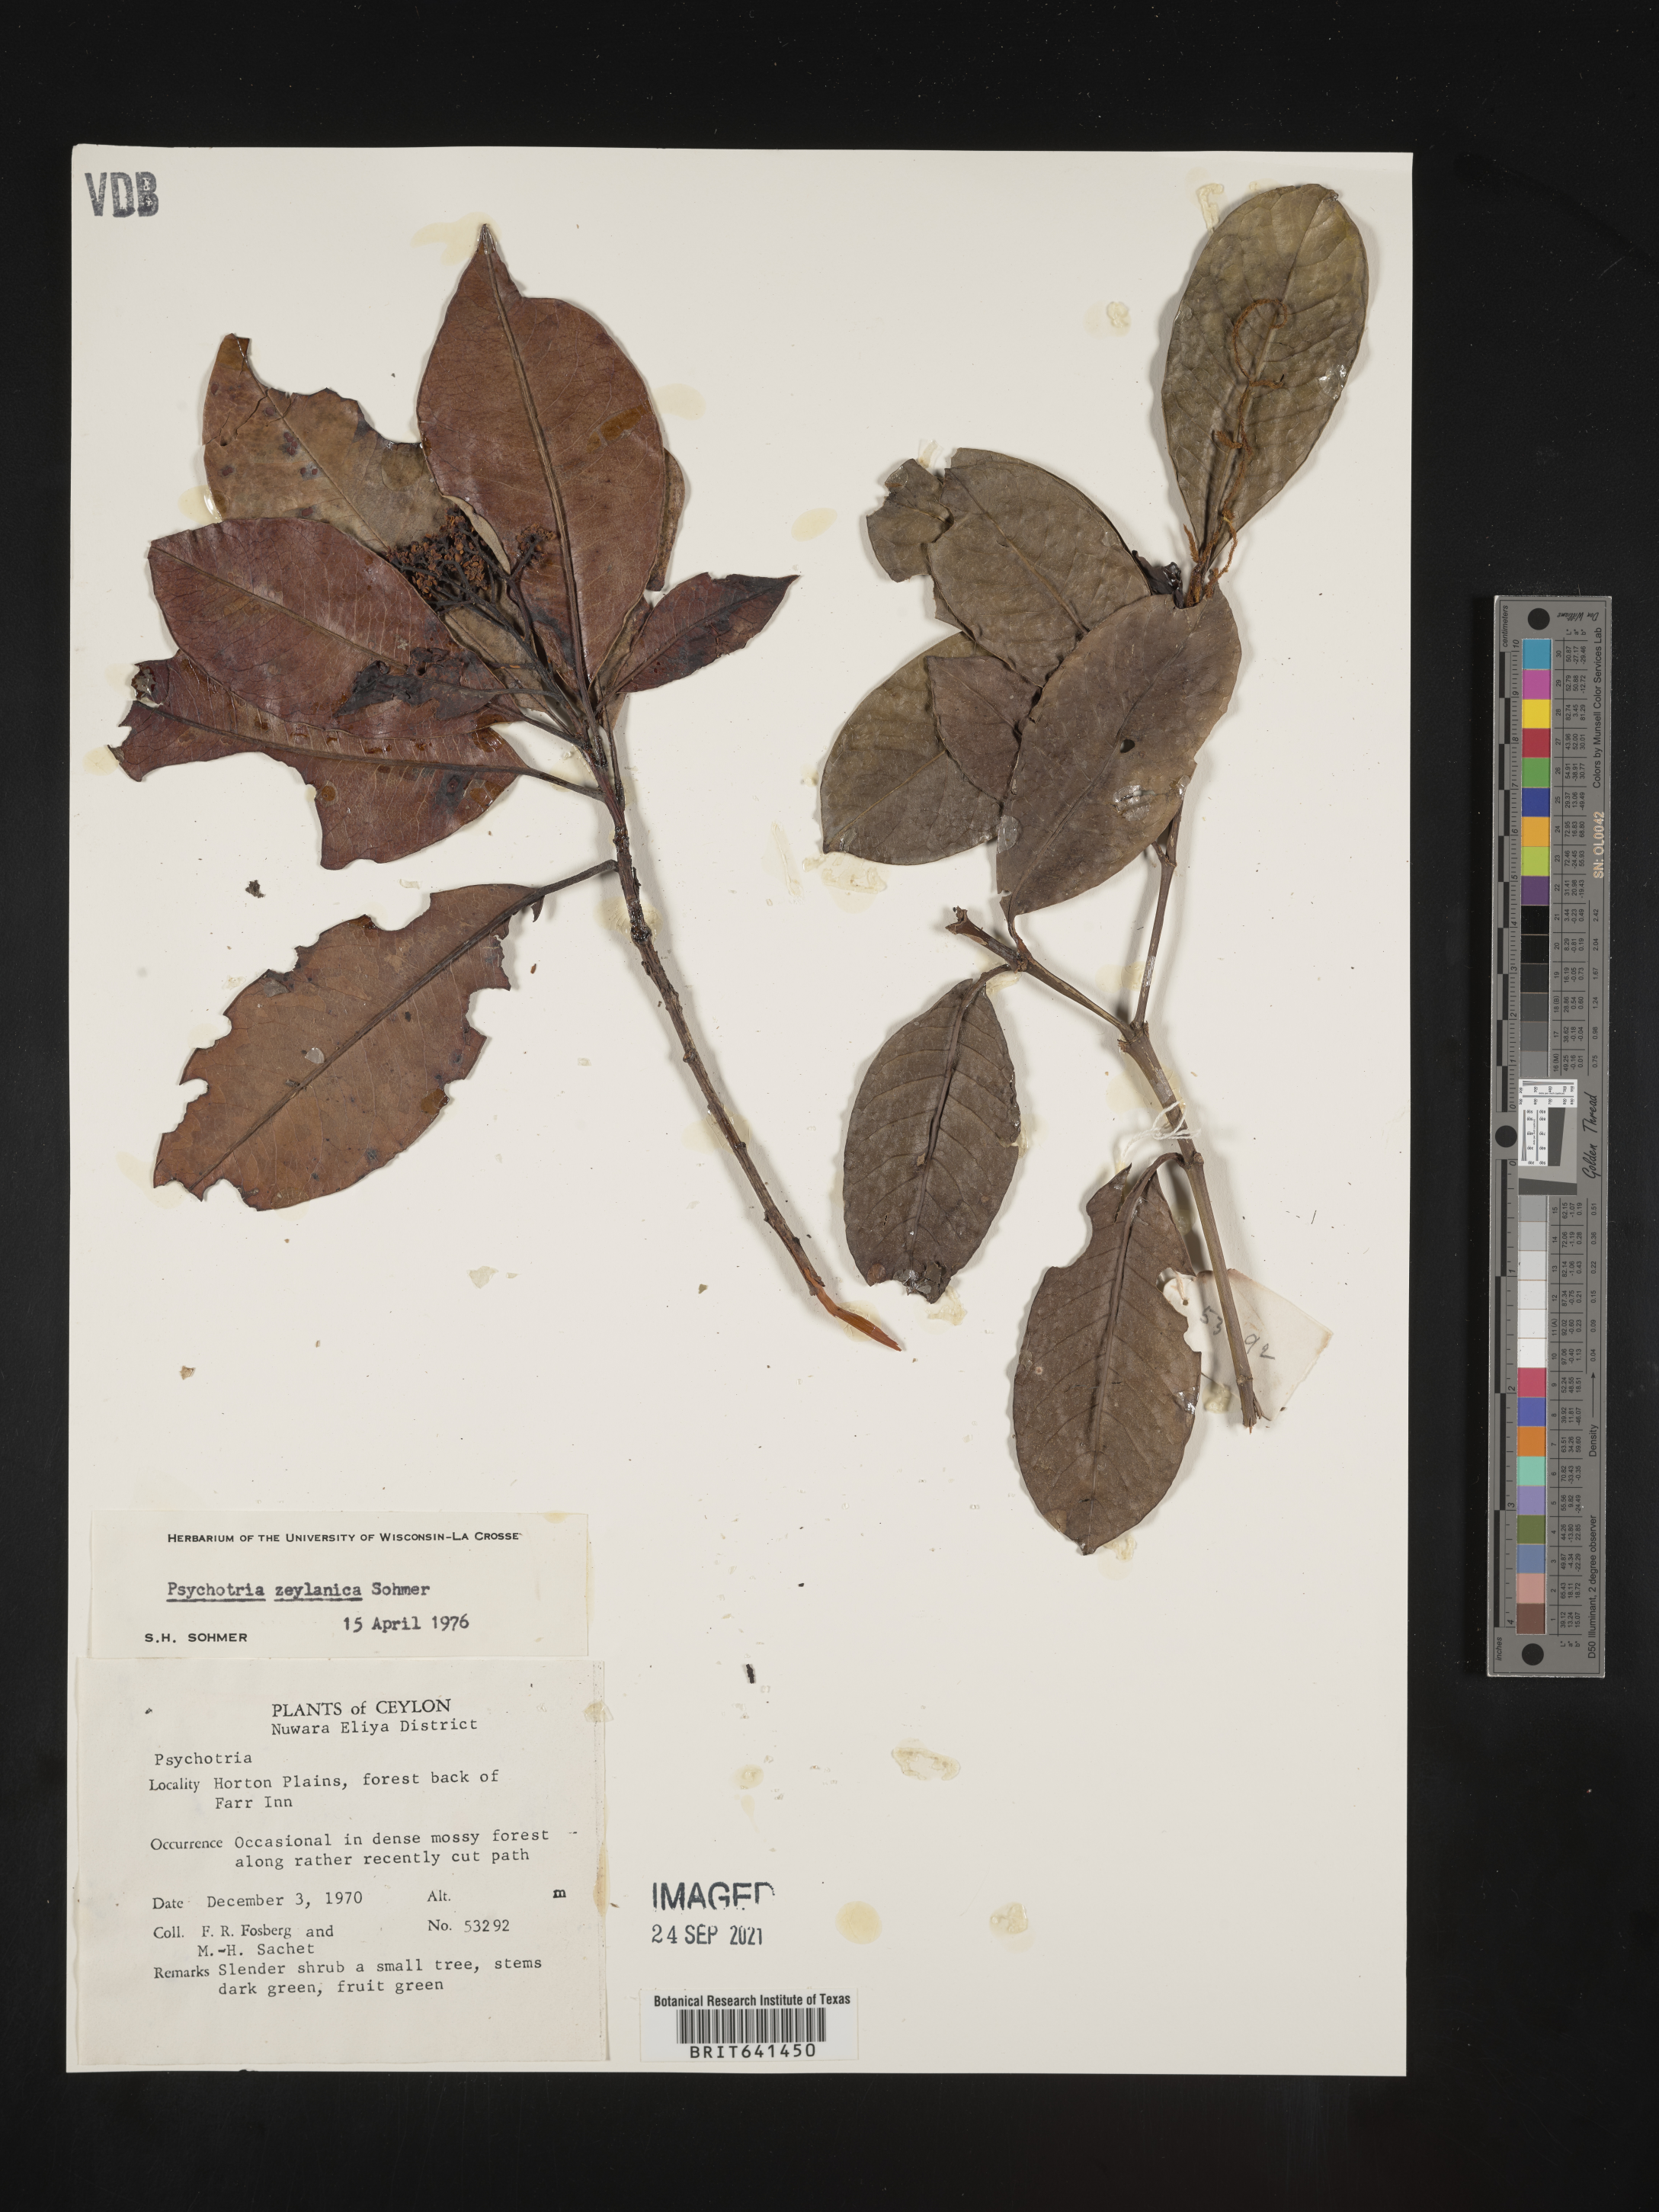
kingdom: Plantae
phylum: Tracheophyta
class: Magnoliopsida
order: Gentianales
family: Rubiaceae
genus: Psychotria
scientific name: Psychotria
